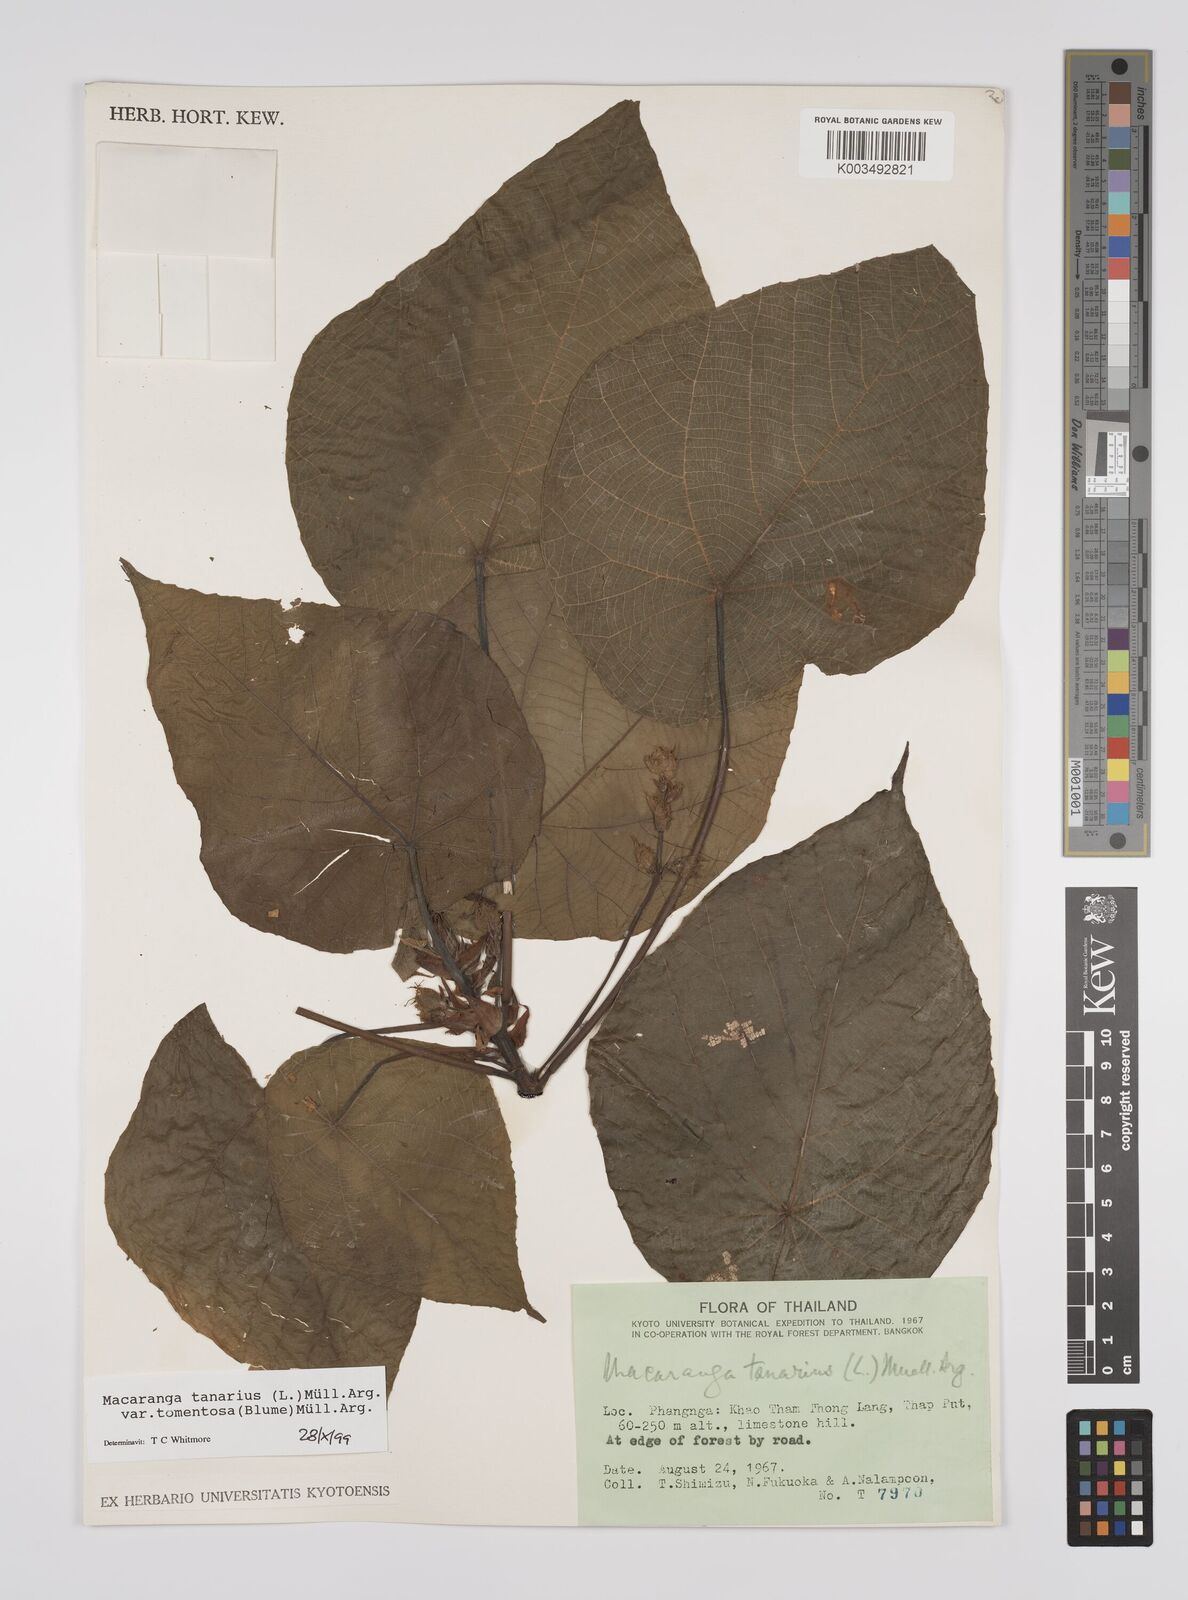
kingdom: Plantae
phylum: Tracheophyta
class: Magnoliopsida
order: Malpighiales
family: Euphorbiaceae
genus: Macaranga
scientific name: Macaranga tanarius
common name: Parasol leaf tree
